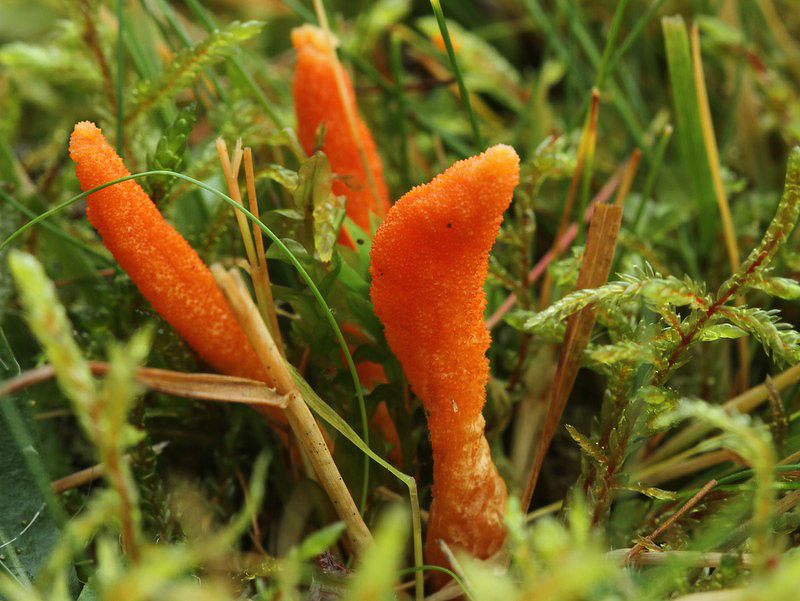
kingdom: Fungi
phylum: Ascomycota
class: Sordariomycetes
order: Hypocreales
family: Cordycipitaceae
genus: Cordyceps
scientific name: Cordyceps militaris
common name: puppe-snyltekølle
